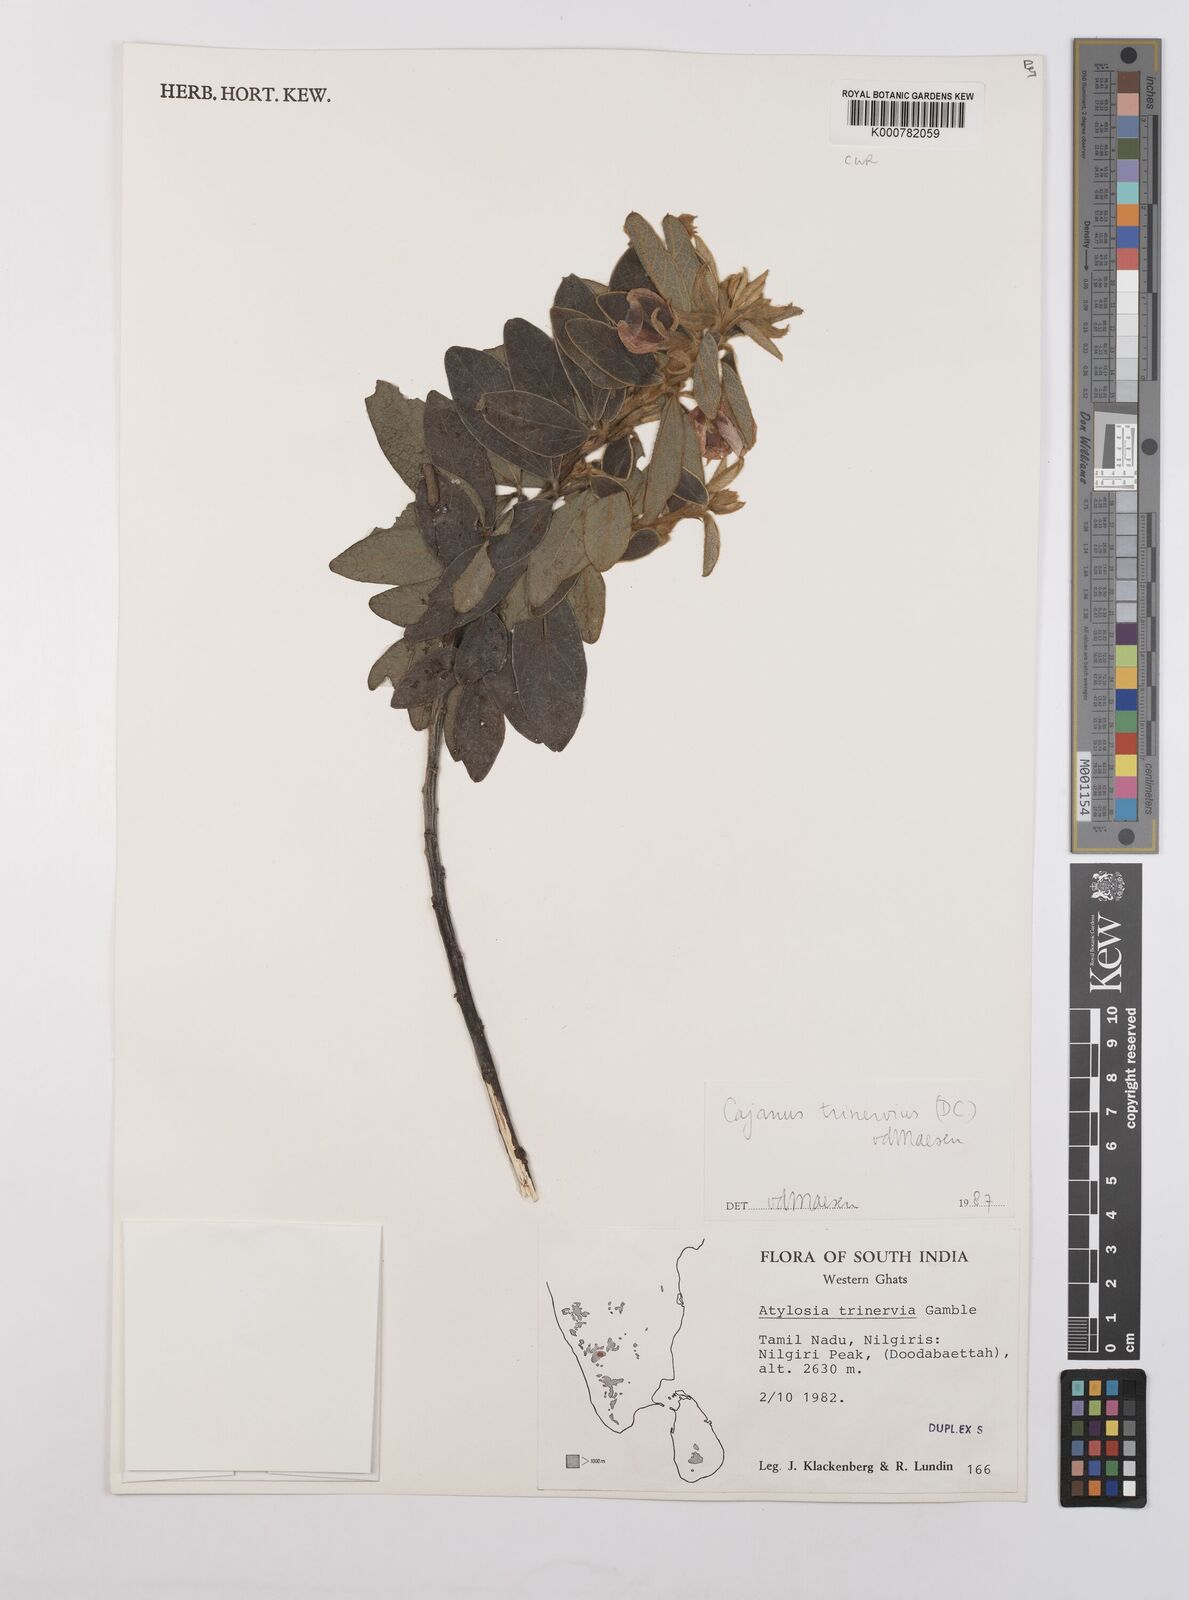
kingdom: Plantae
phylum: Tracheophyta
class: Magnoliopsida
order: Fabales
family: Fabaceae
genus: Cajanus
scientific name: Cajanus trinervius
